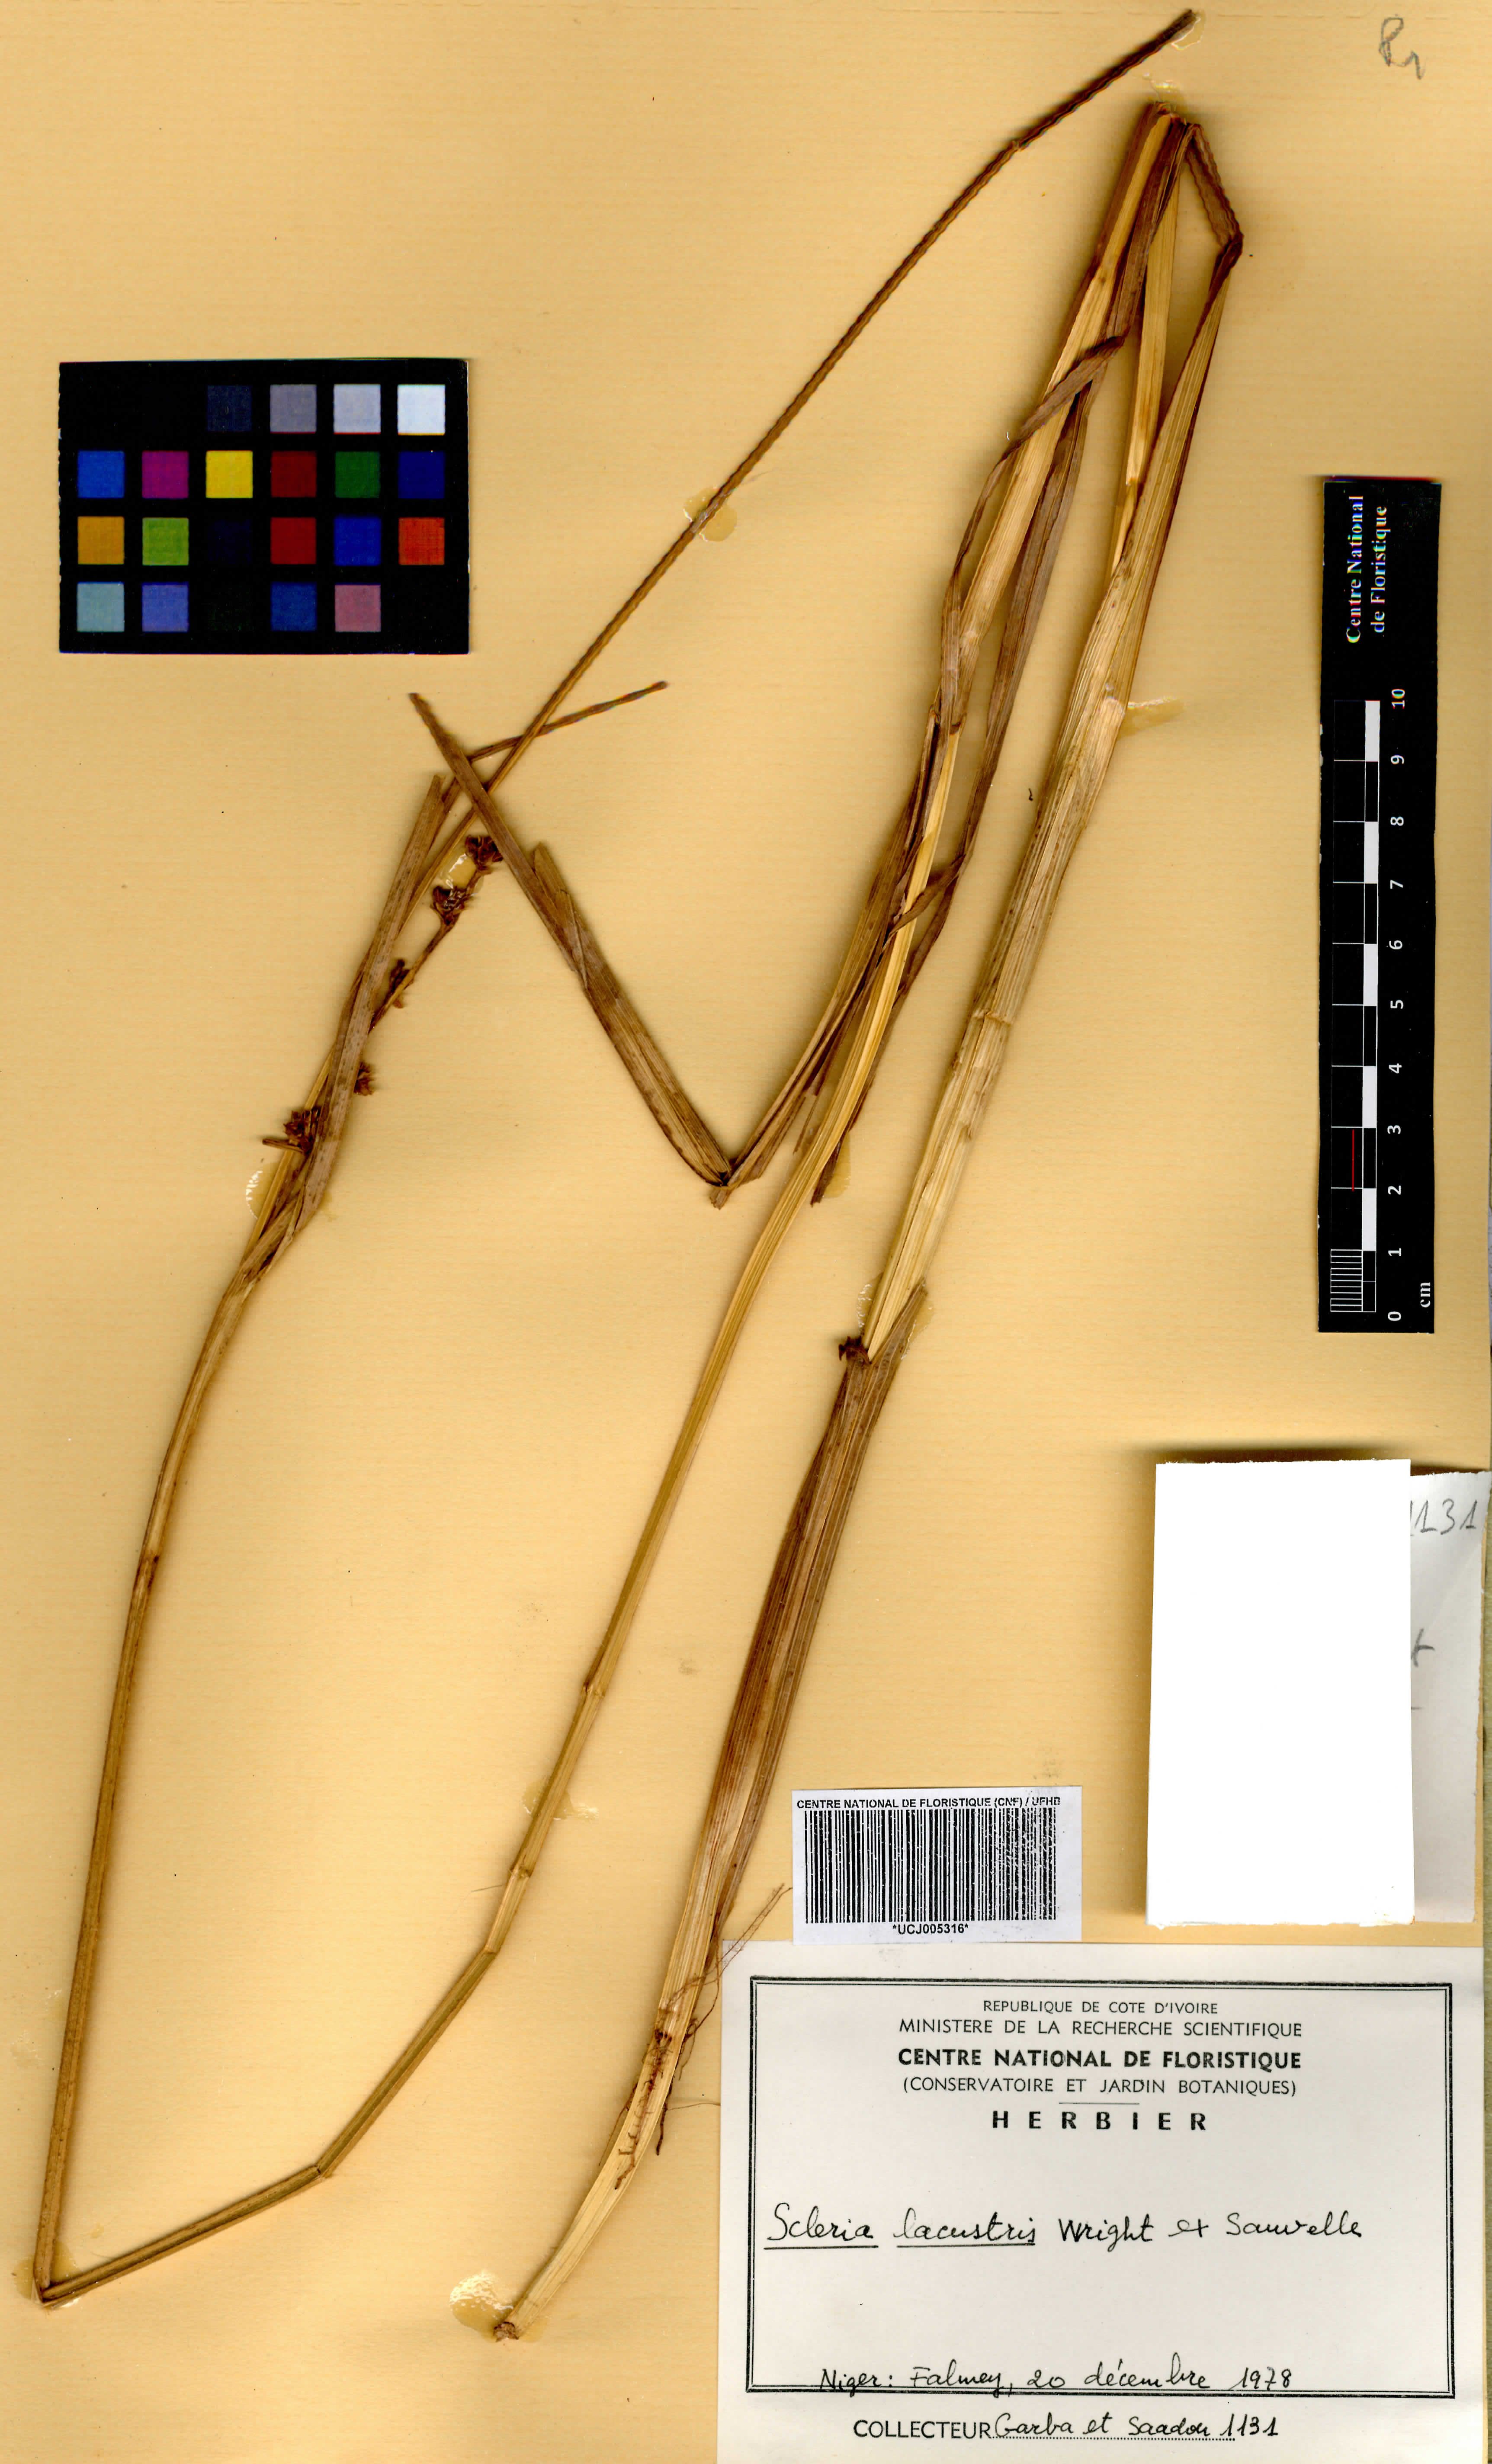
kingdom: Plantae
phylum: Tracheophyta
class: Liliopsida
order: Poales
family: Cyperaceae
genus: Scleria
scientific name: Scleria lacustris
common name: Lakeshore nutrush
